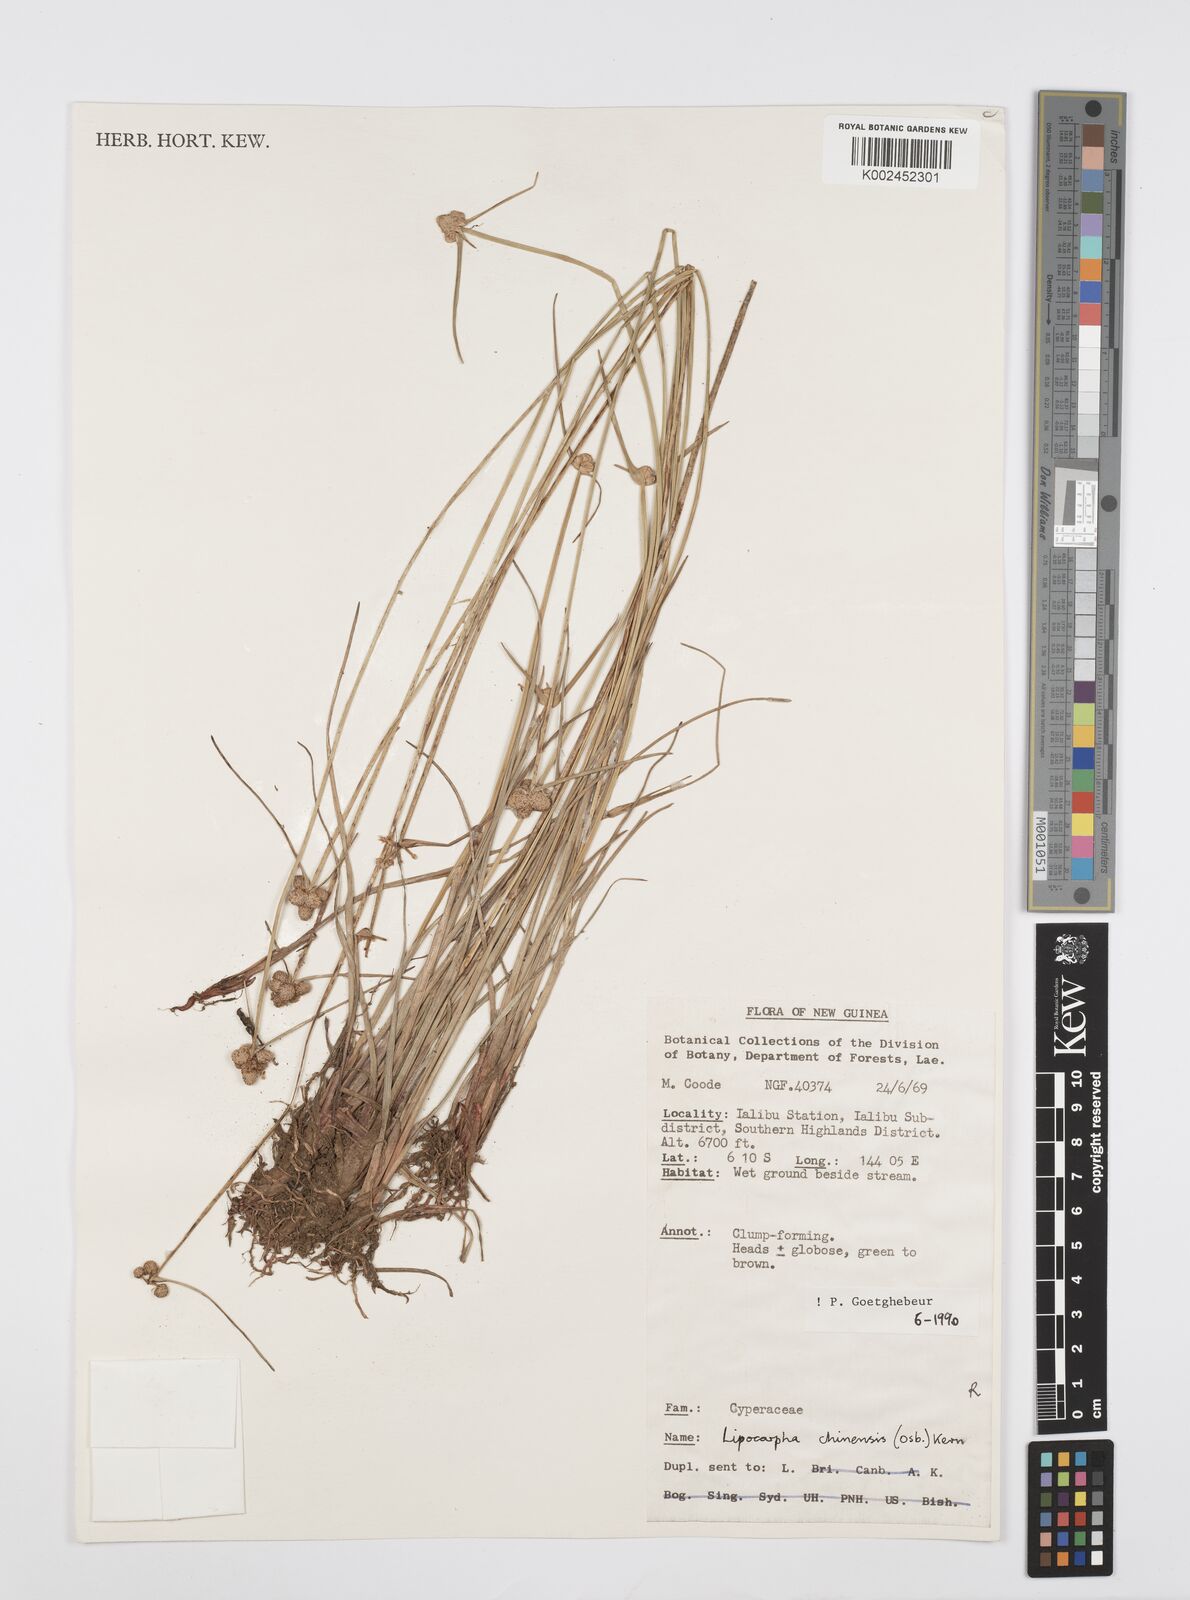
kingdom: Plantae
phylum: Tracheophyta
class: Liliopsida
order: Poales
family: Cyperaceae
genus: Cyperus
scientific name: Cyperus albescens
